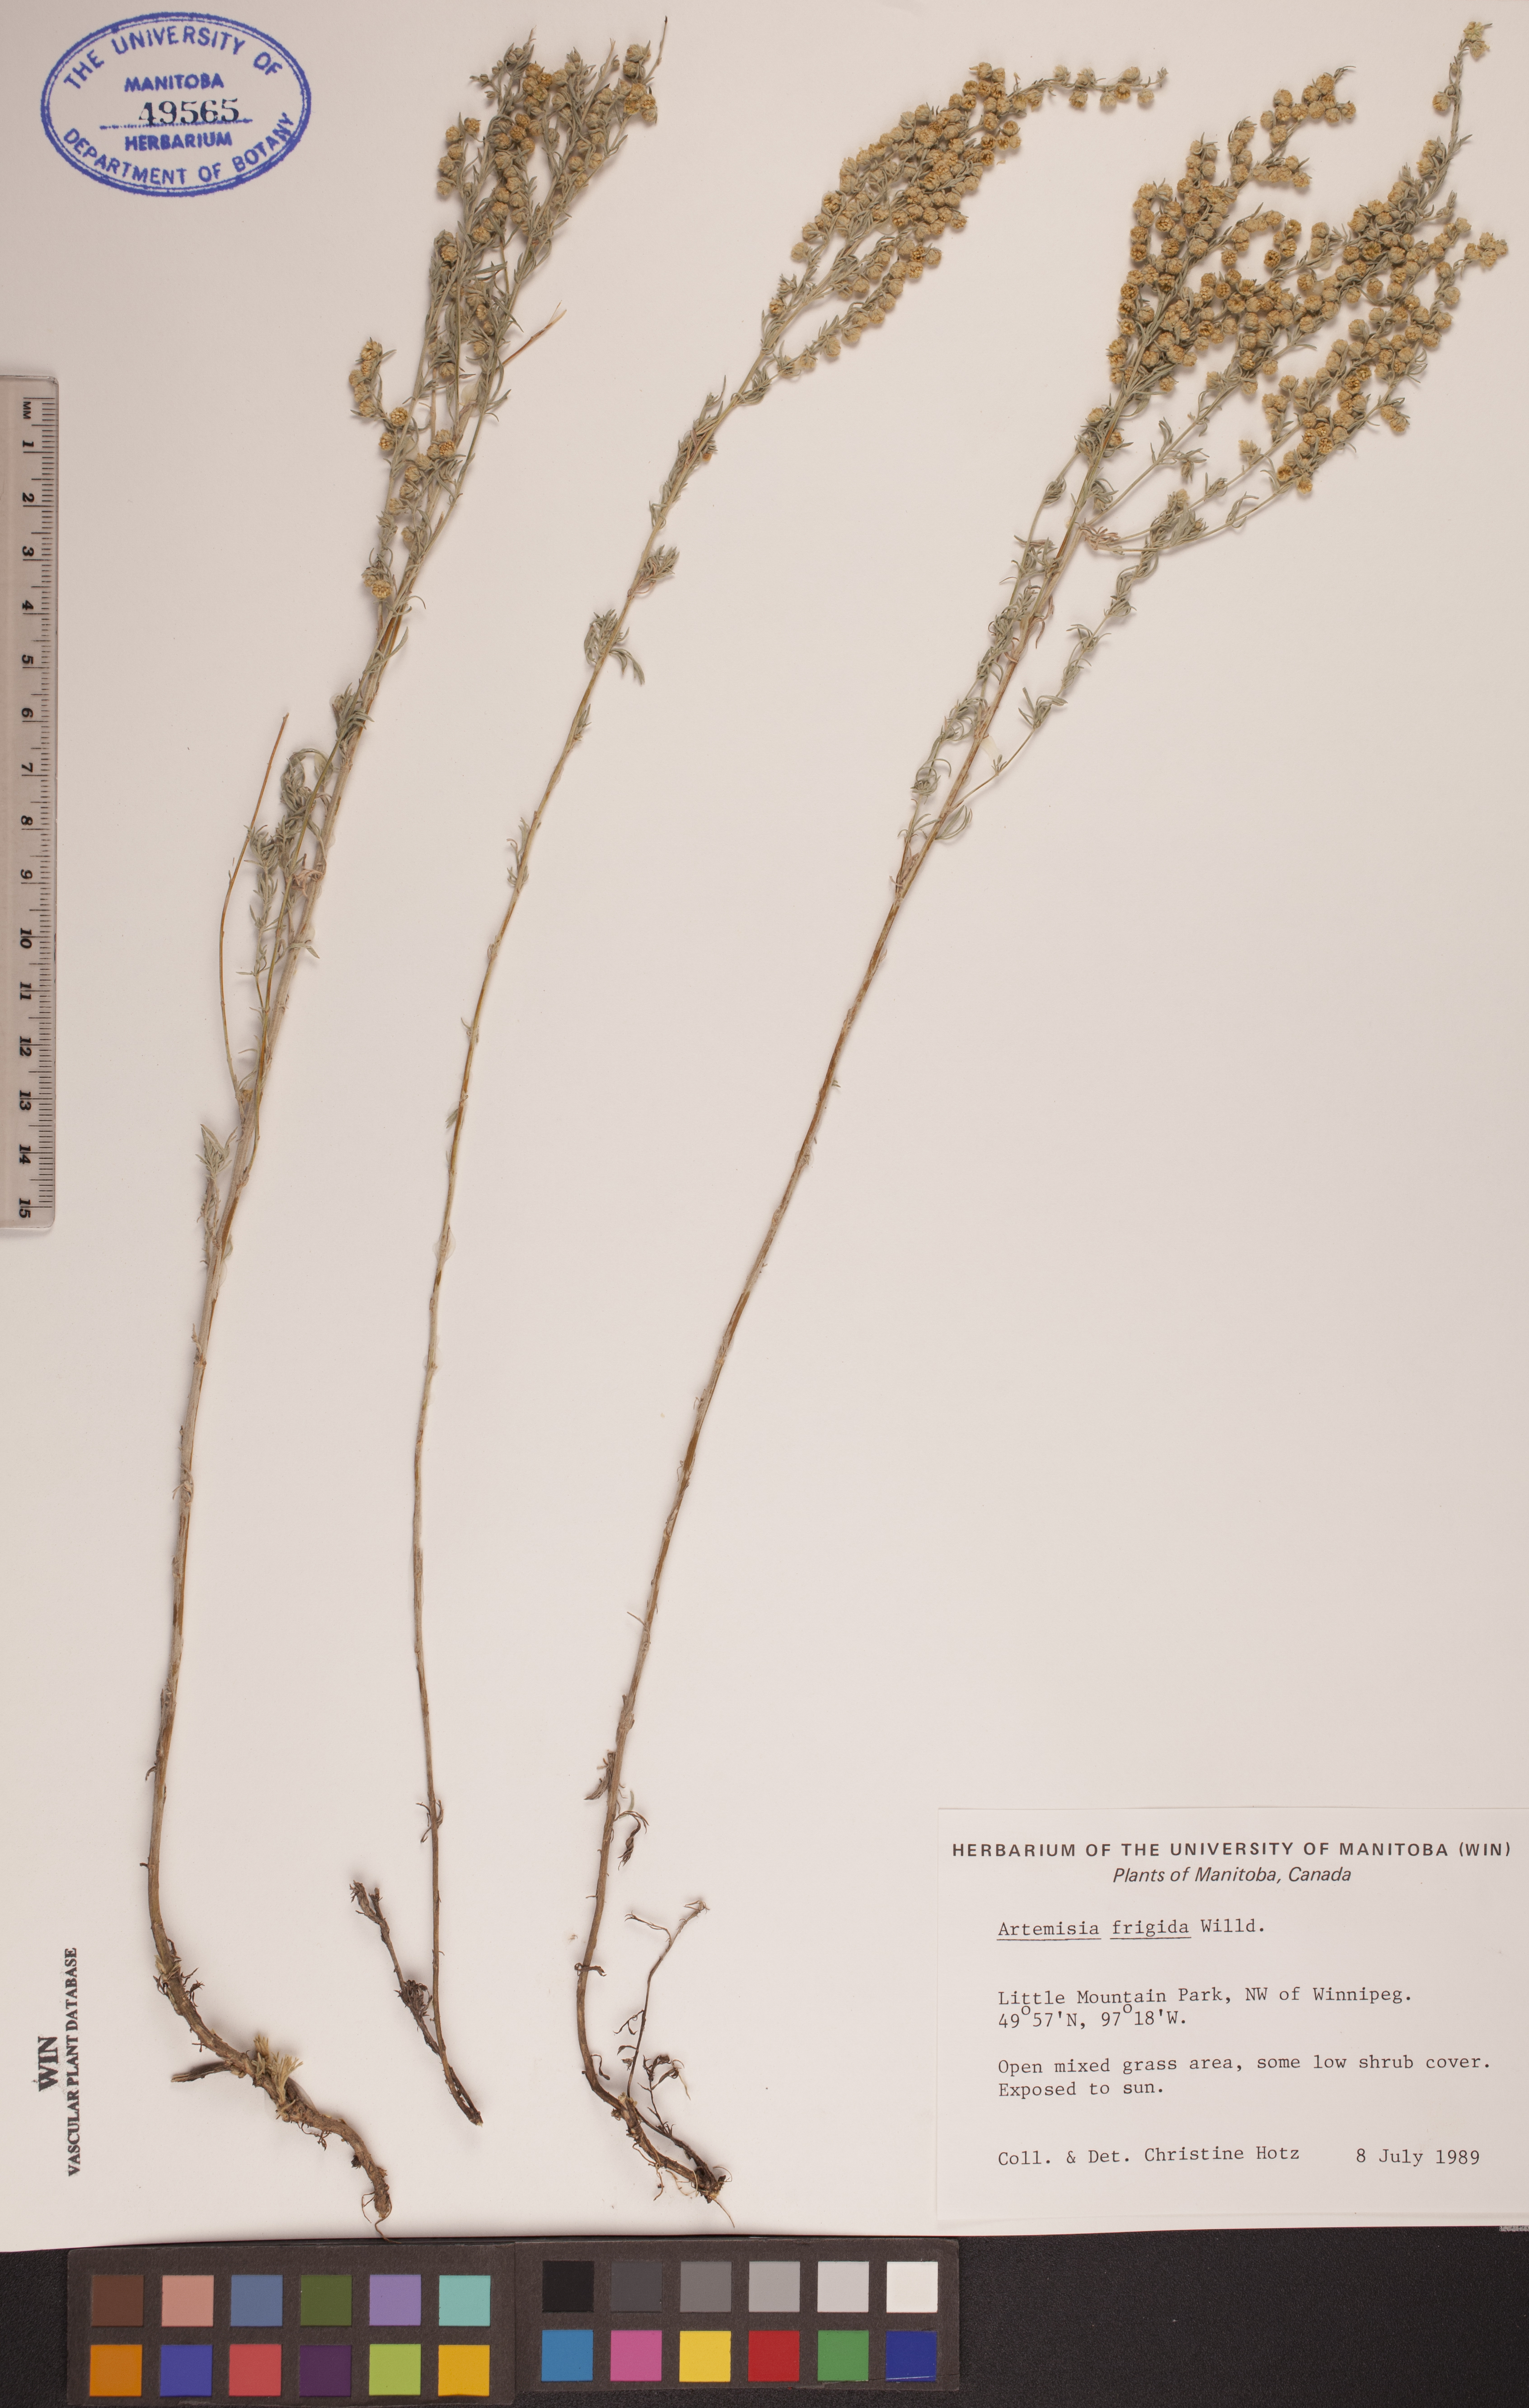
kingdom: Plantae
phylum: Tracheophyta
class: Magnoliopsida
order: Asterales
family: Asteraceae
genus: Artemisia
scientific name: Artemisia frigida
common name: Prairie sagewort
